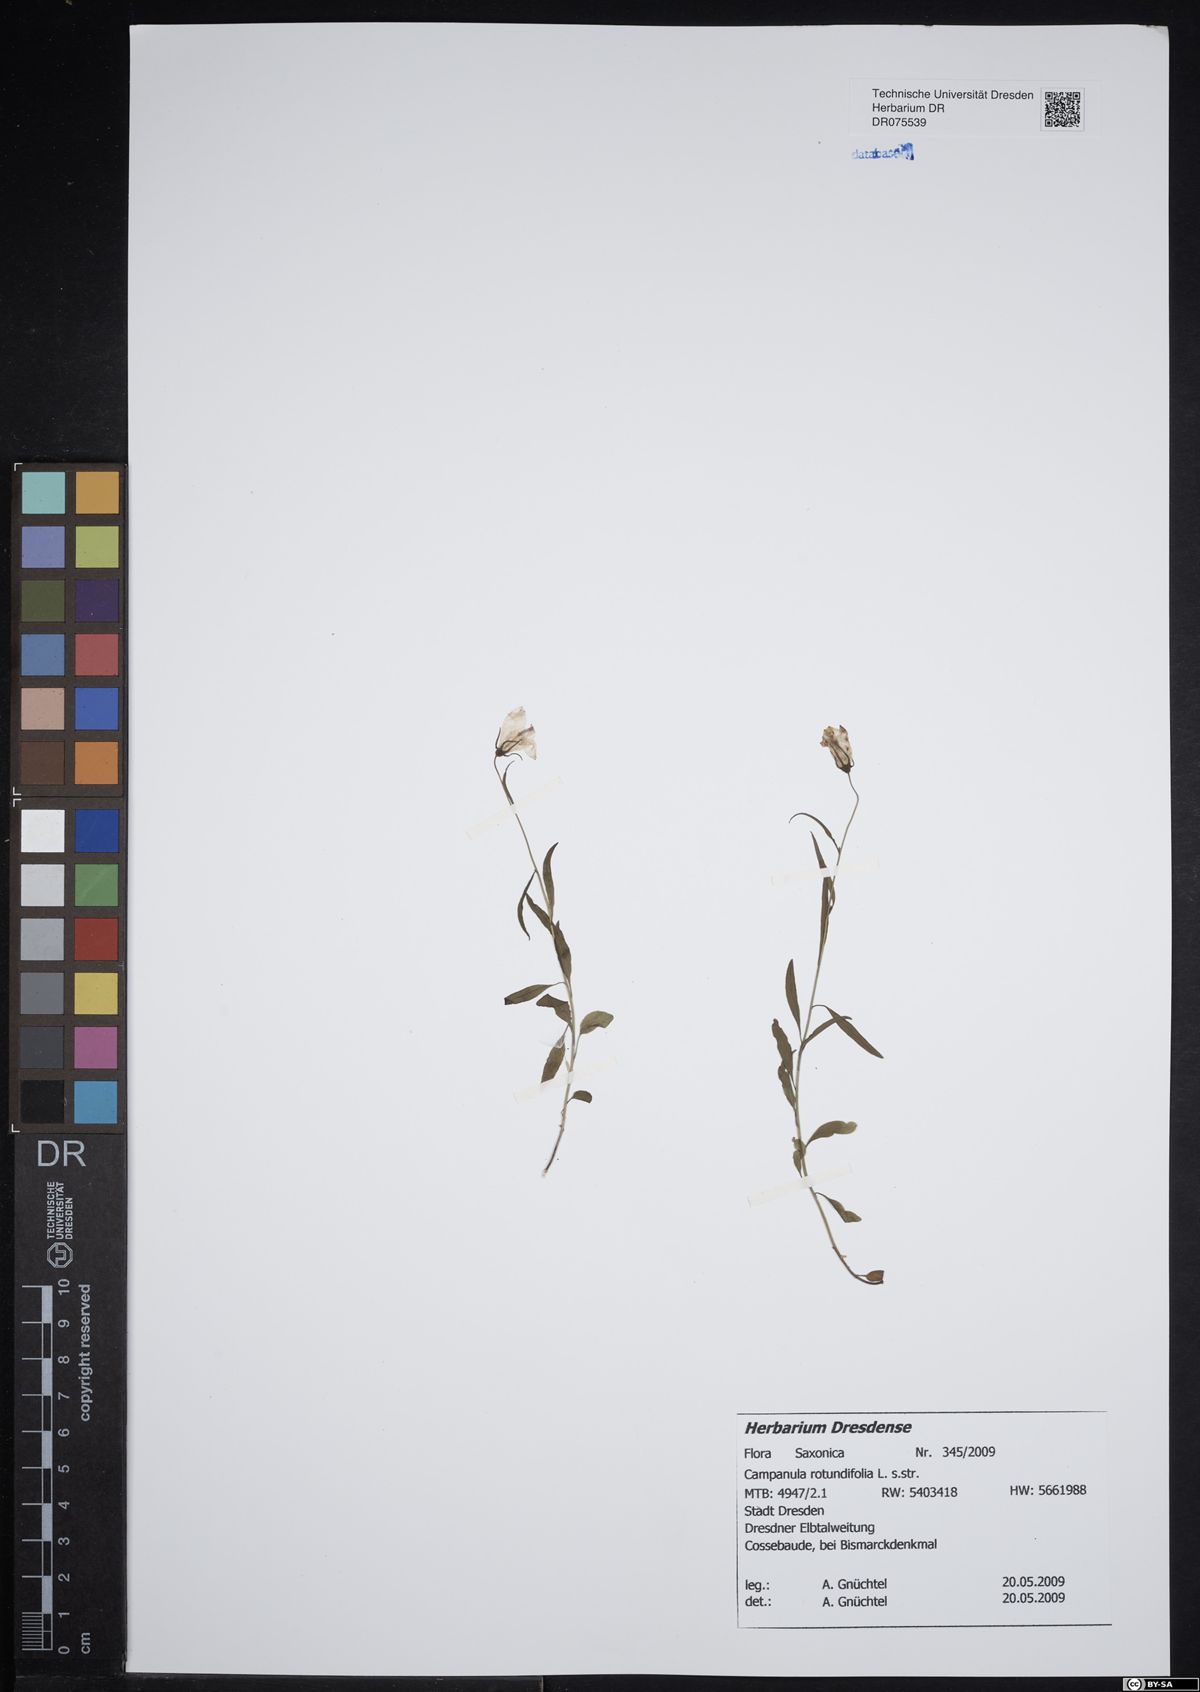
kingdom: Plantae
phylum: Tracheophyta
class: Magnoliopsida
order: Asterales
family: Campanulaceae
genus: Campanula
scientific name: Campanula rotundifolia
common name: Harebell
